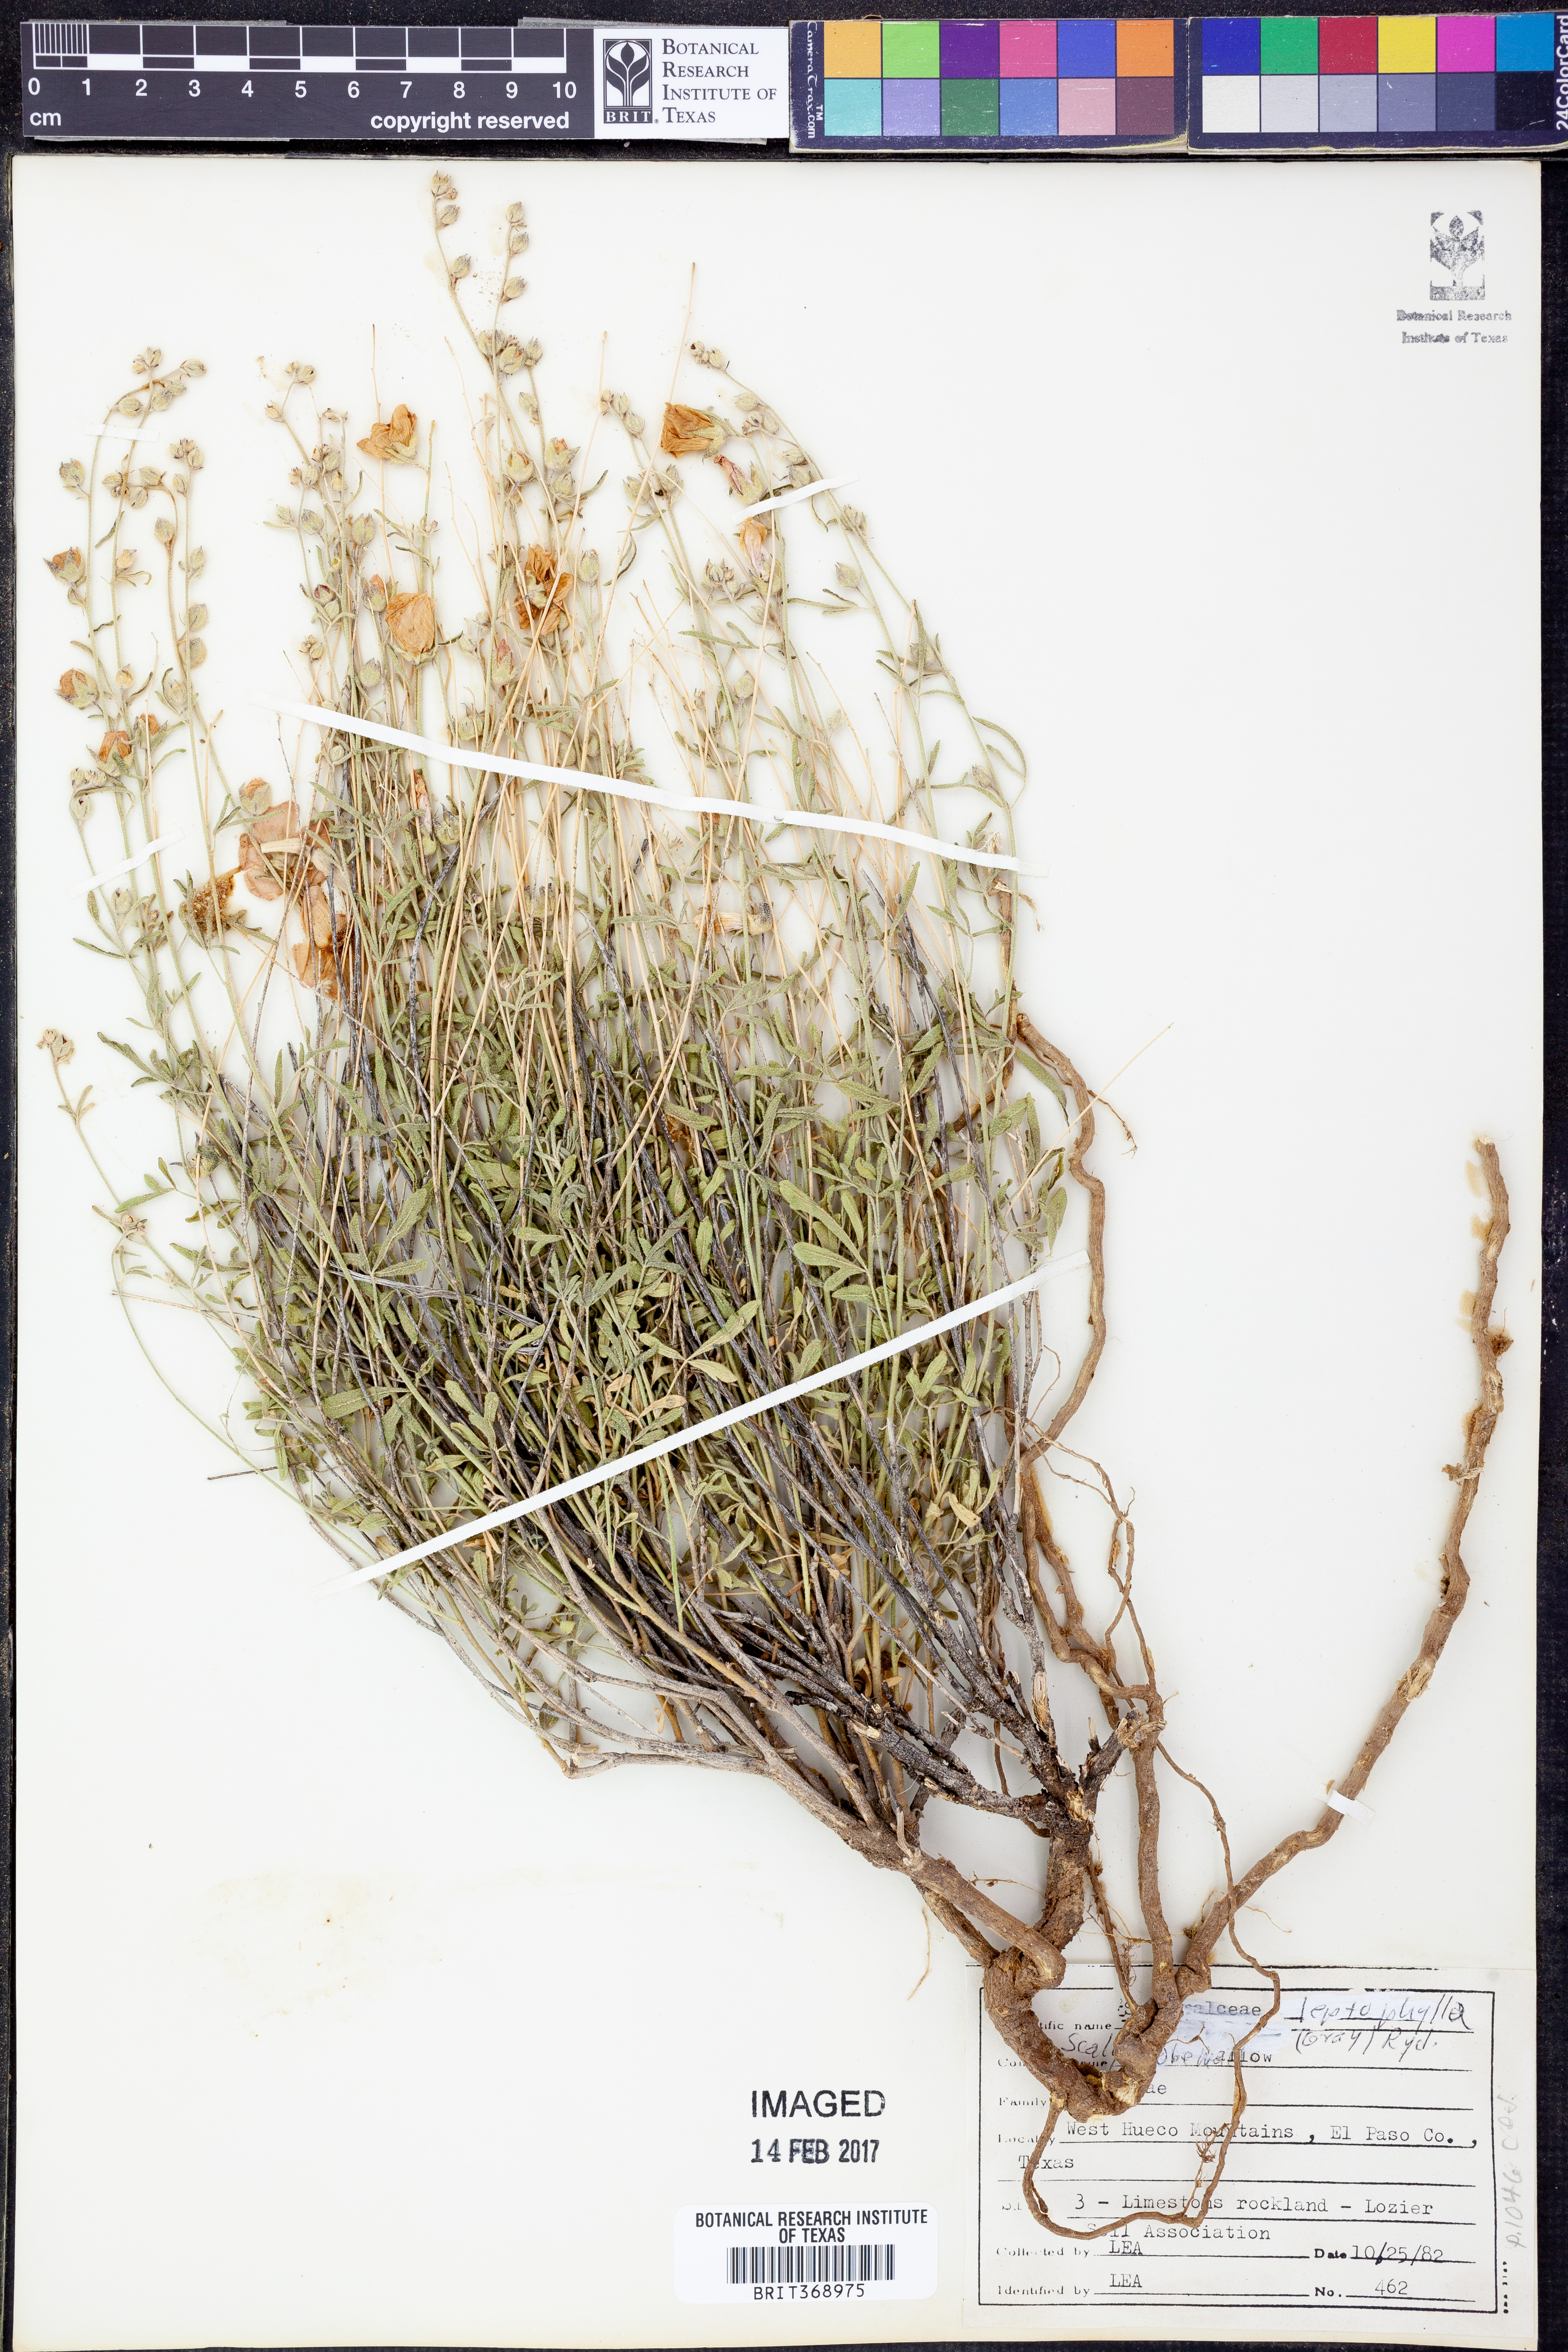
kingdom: Plantae
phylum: Tracheophyta
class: Magnoliopsida
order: Malvales
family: Malvaceae
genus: Sphaeralcea
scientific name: Sphaeralcea leptophylla
